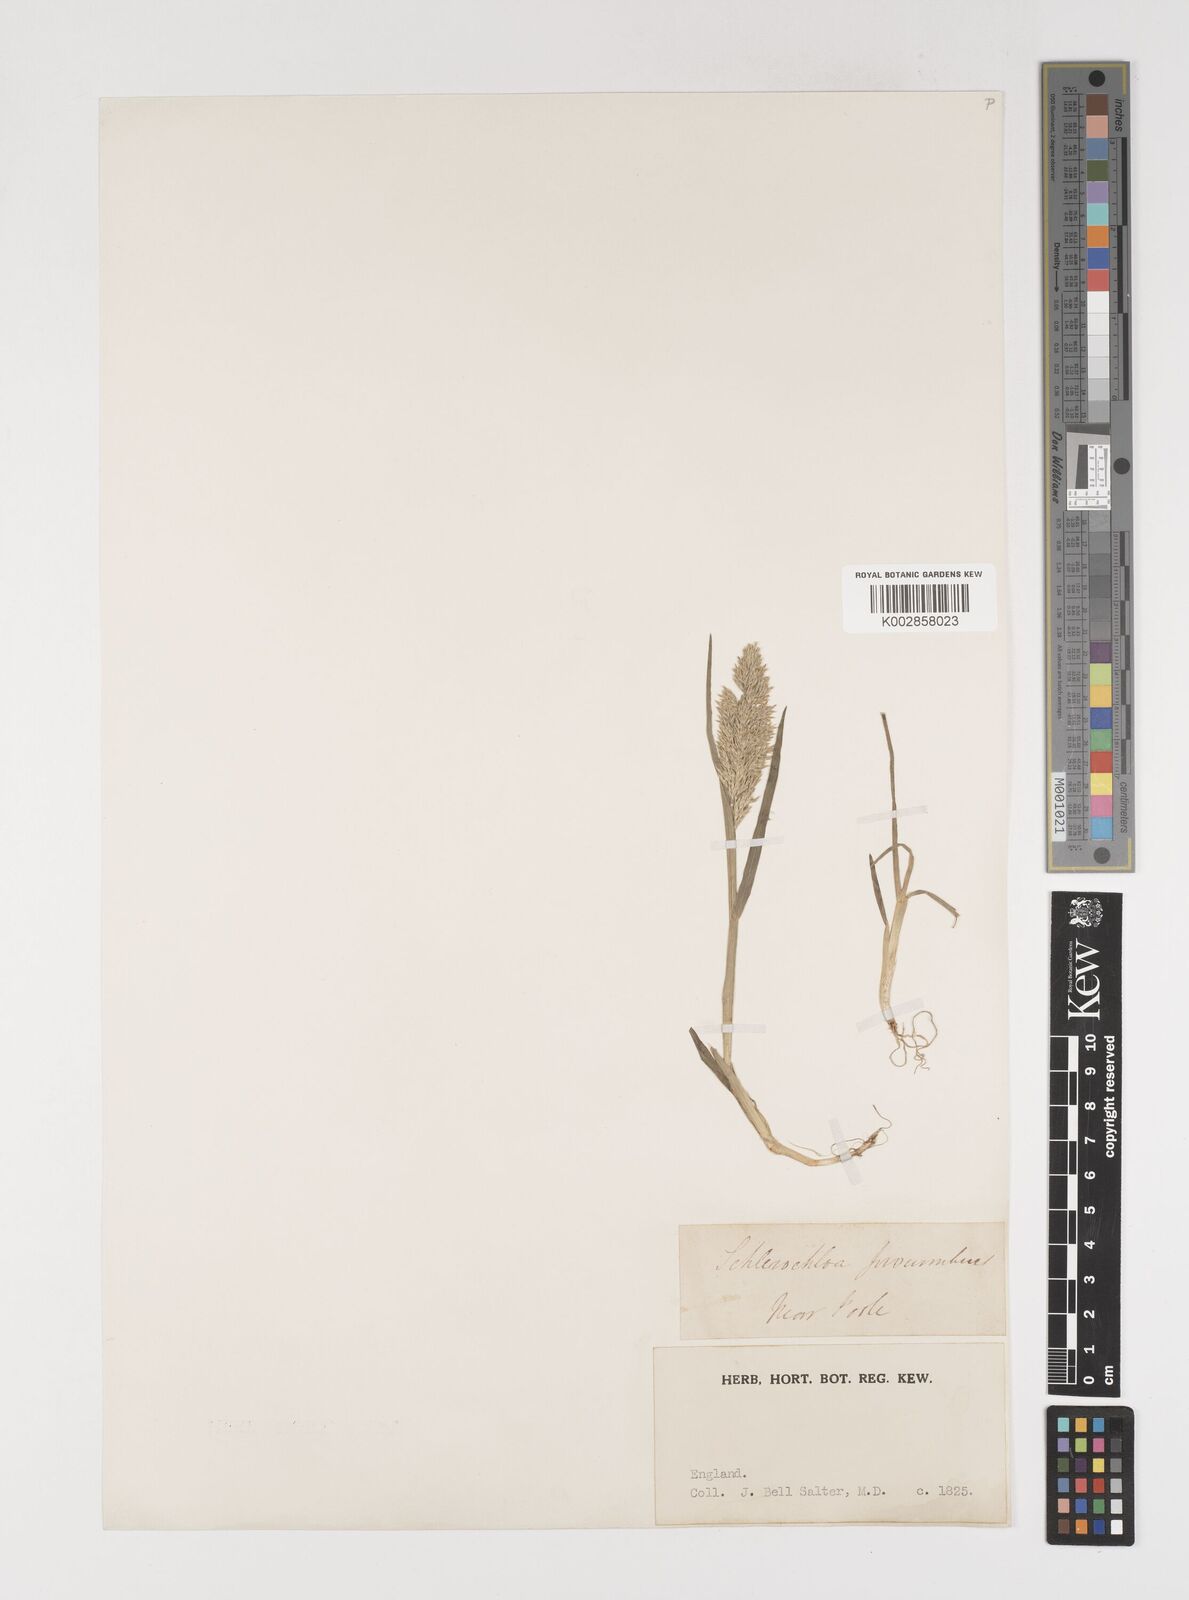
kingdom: Plantae
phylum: Tracheophyta
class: Liliopsida
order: Poales
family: Poaceae
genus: Puccinellia
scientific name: Puccinellia rupestris
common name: Stiff saltmarsh-grass
